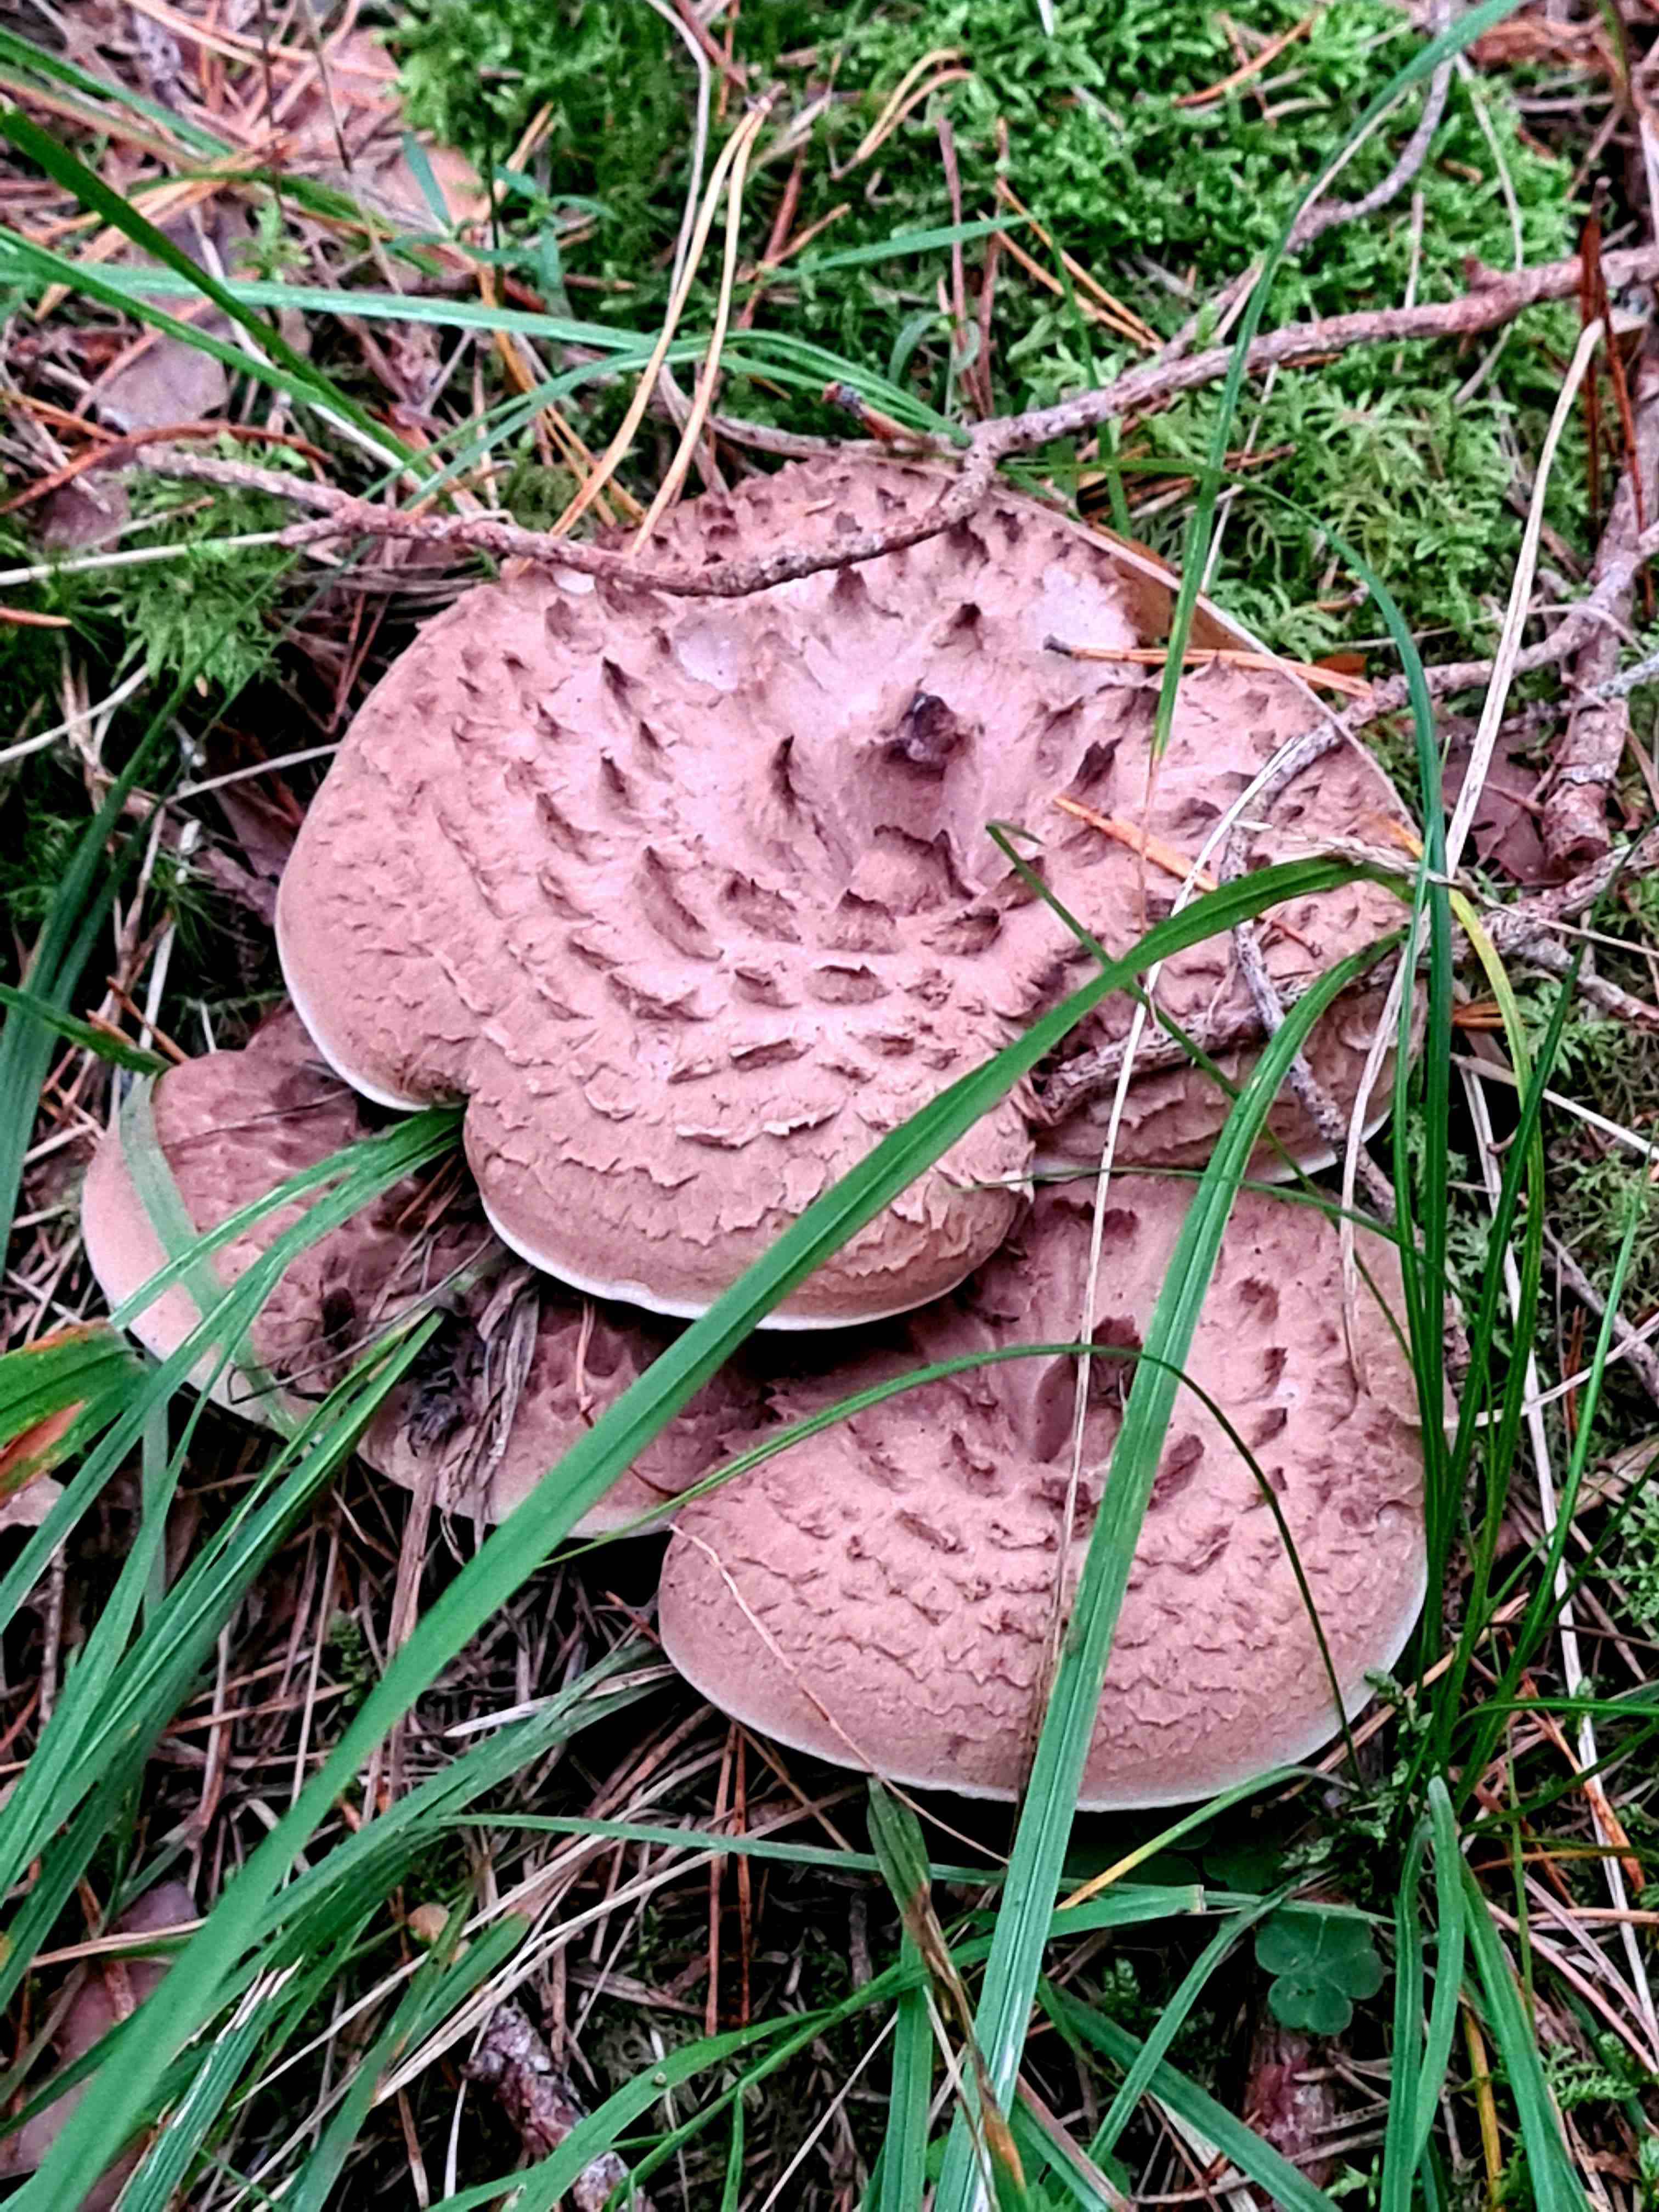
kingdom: Fungi
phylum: Basidiomycota
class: Agaricomycetes
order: Thelephorales
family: Bankeraceae
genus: Sarcodon
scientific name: Sarcodon imbricatus
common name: skællet kødpigsvamp
